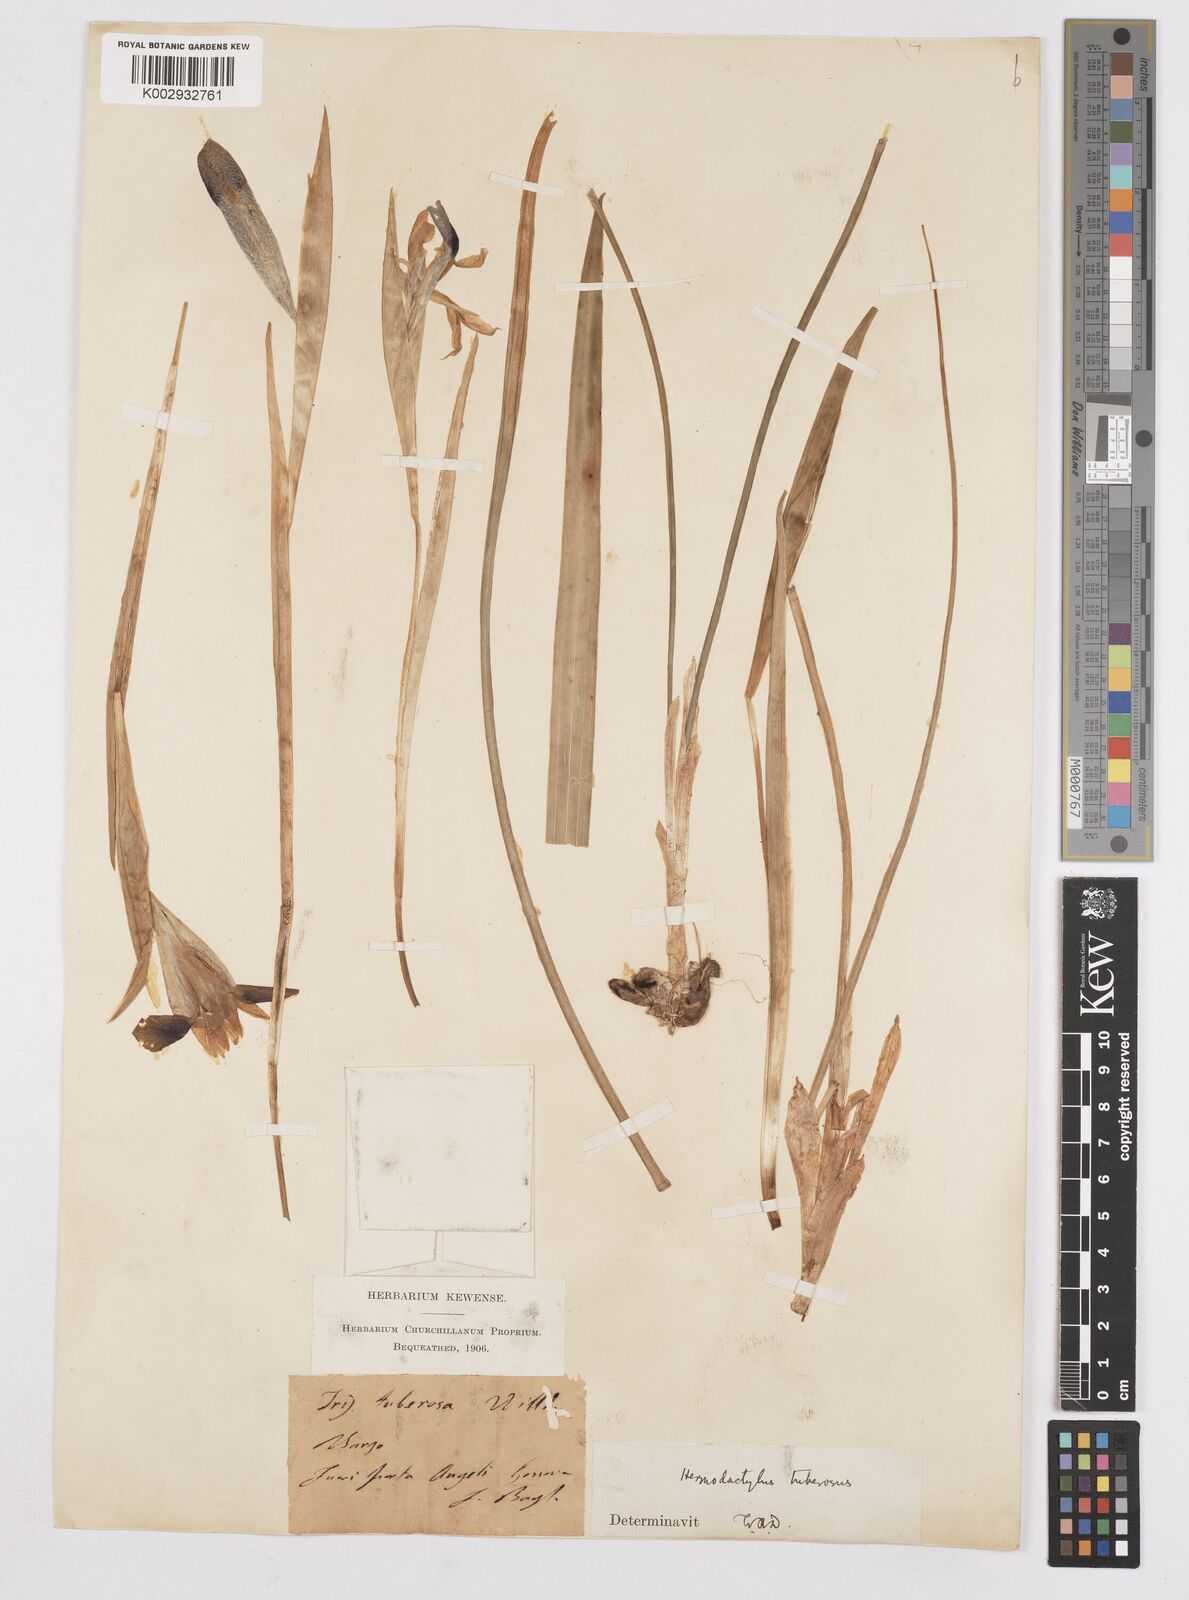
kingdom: Plantae
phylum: Tracheophyta
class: Liliopsida
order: Asparagales
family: Iridaceae
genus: Iris
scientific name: Iris tuberosa
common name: Snake's-head iris
